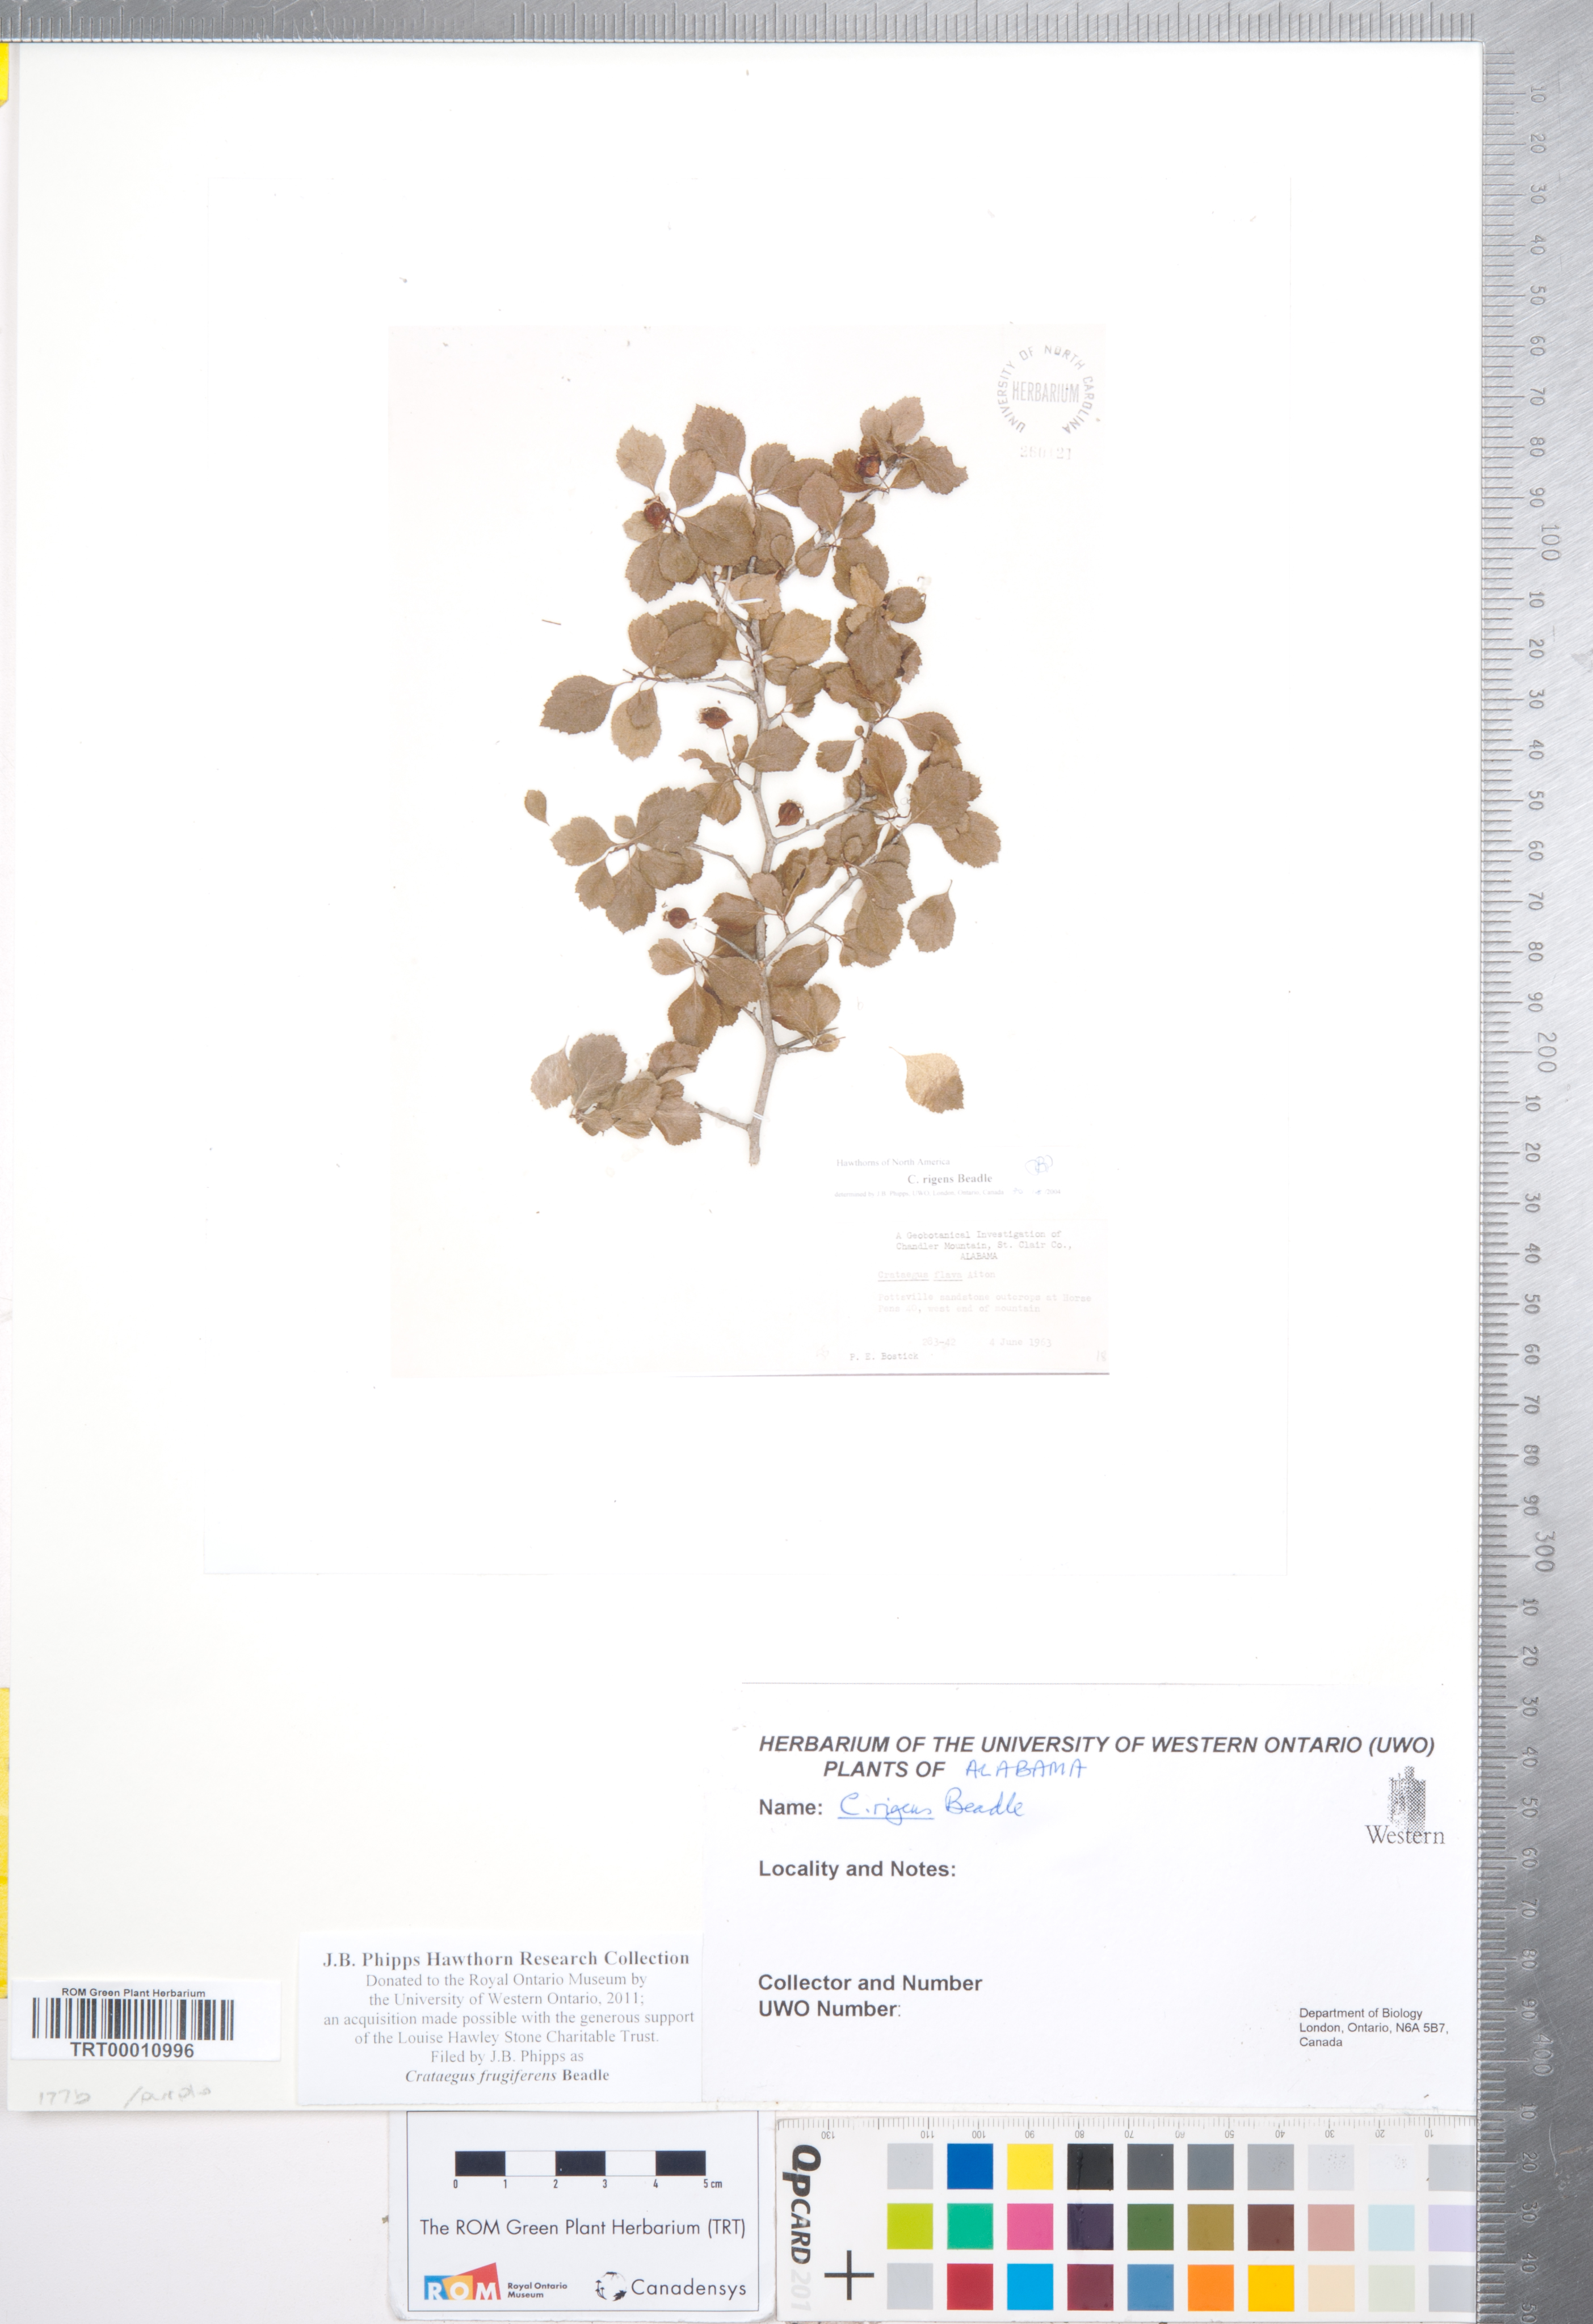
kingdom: Plantae
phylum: Tracheophyta
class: Magnoliopsida
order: Rosales
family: Rosaceae
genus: Crataegus
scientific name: Crataegus alleghaniensis
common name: Allegheny hawthorn
